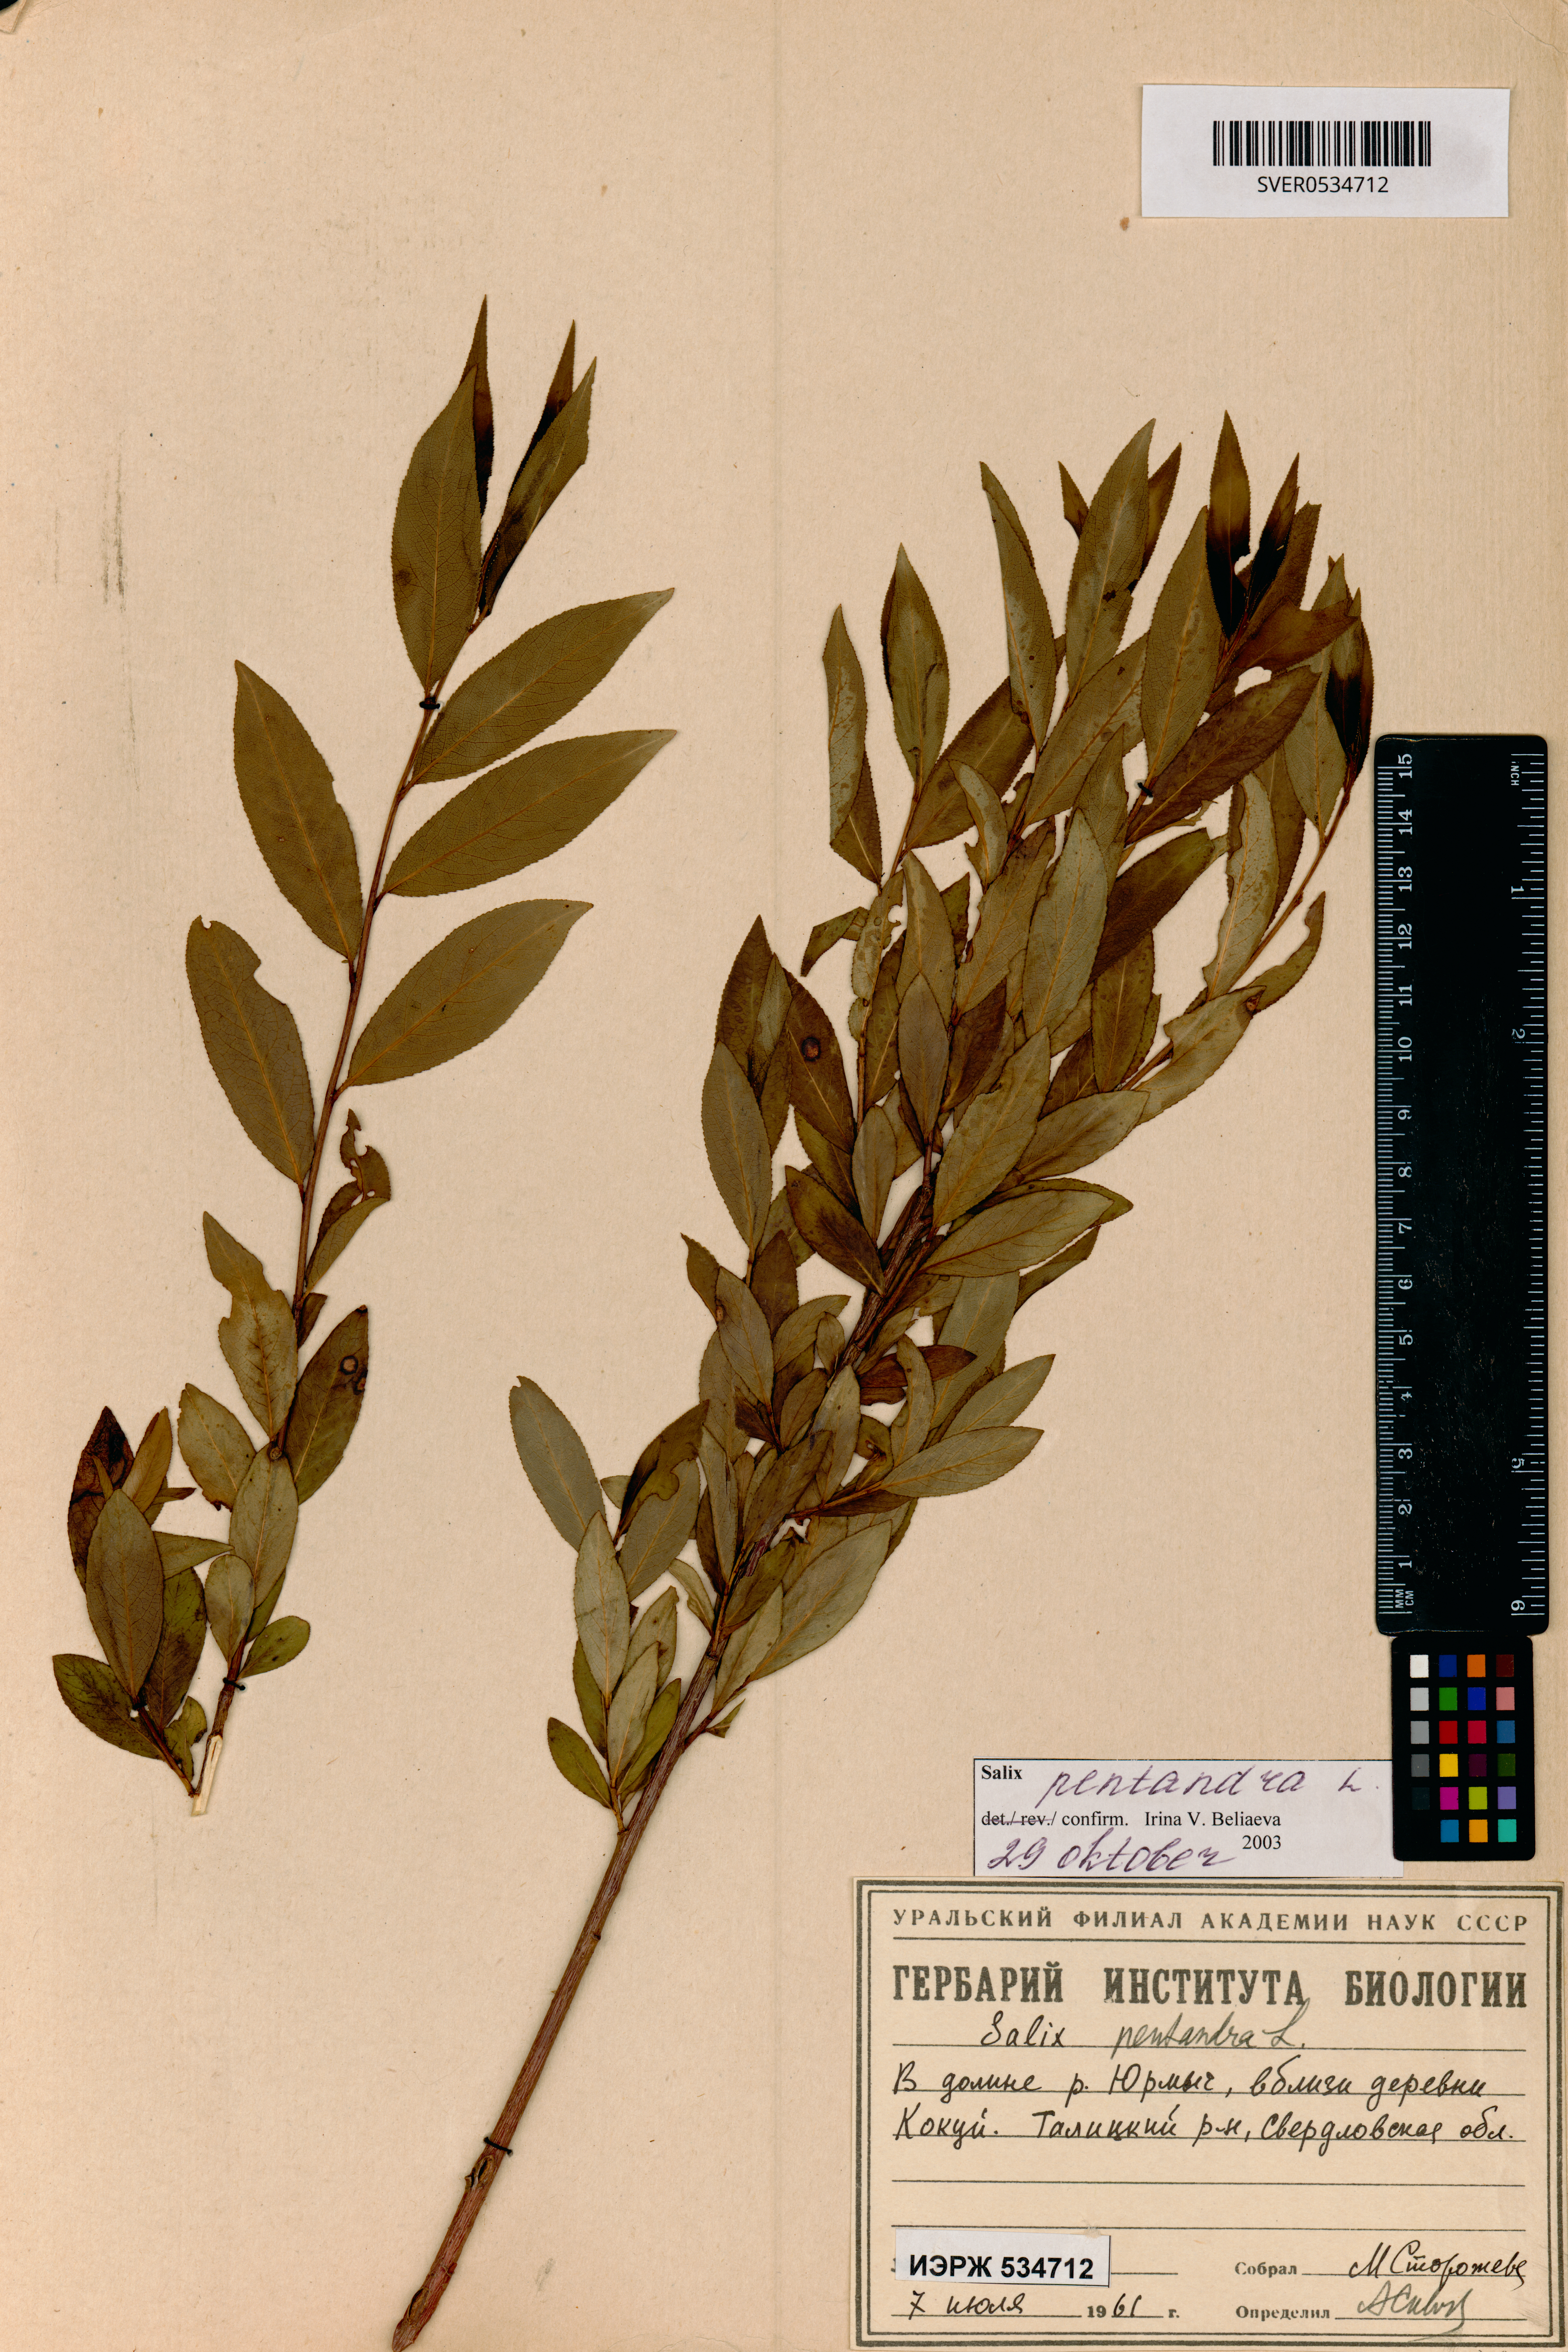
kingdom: Plantae
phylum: Tracheophyta
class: Magnoliopsida
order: Malpighiales
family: Salicaceae
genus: Salix
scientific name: Salix pentandra
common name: Bay willow
